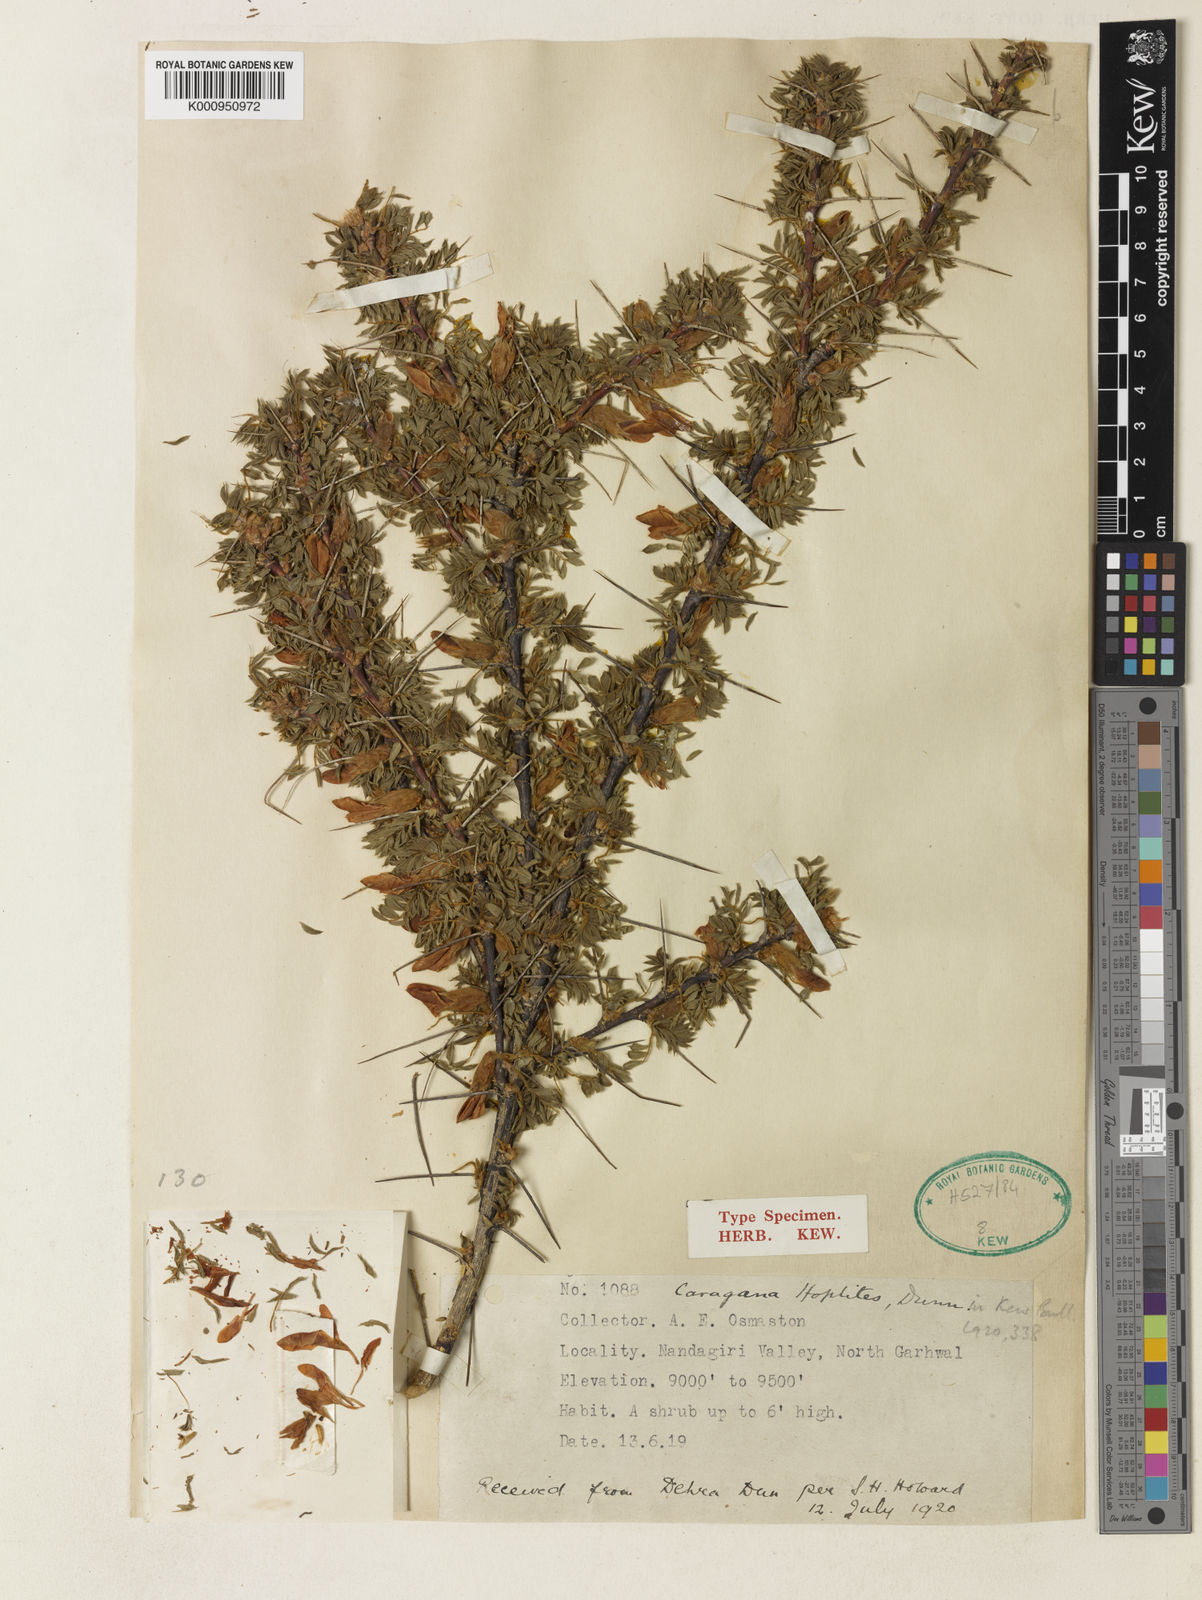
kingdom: Plantae
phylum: Tracheophyta
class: Magnoliopsida
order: Fabales
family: Fabaceae
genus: Caragana
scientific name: Caragana sukiensis
